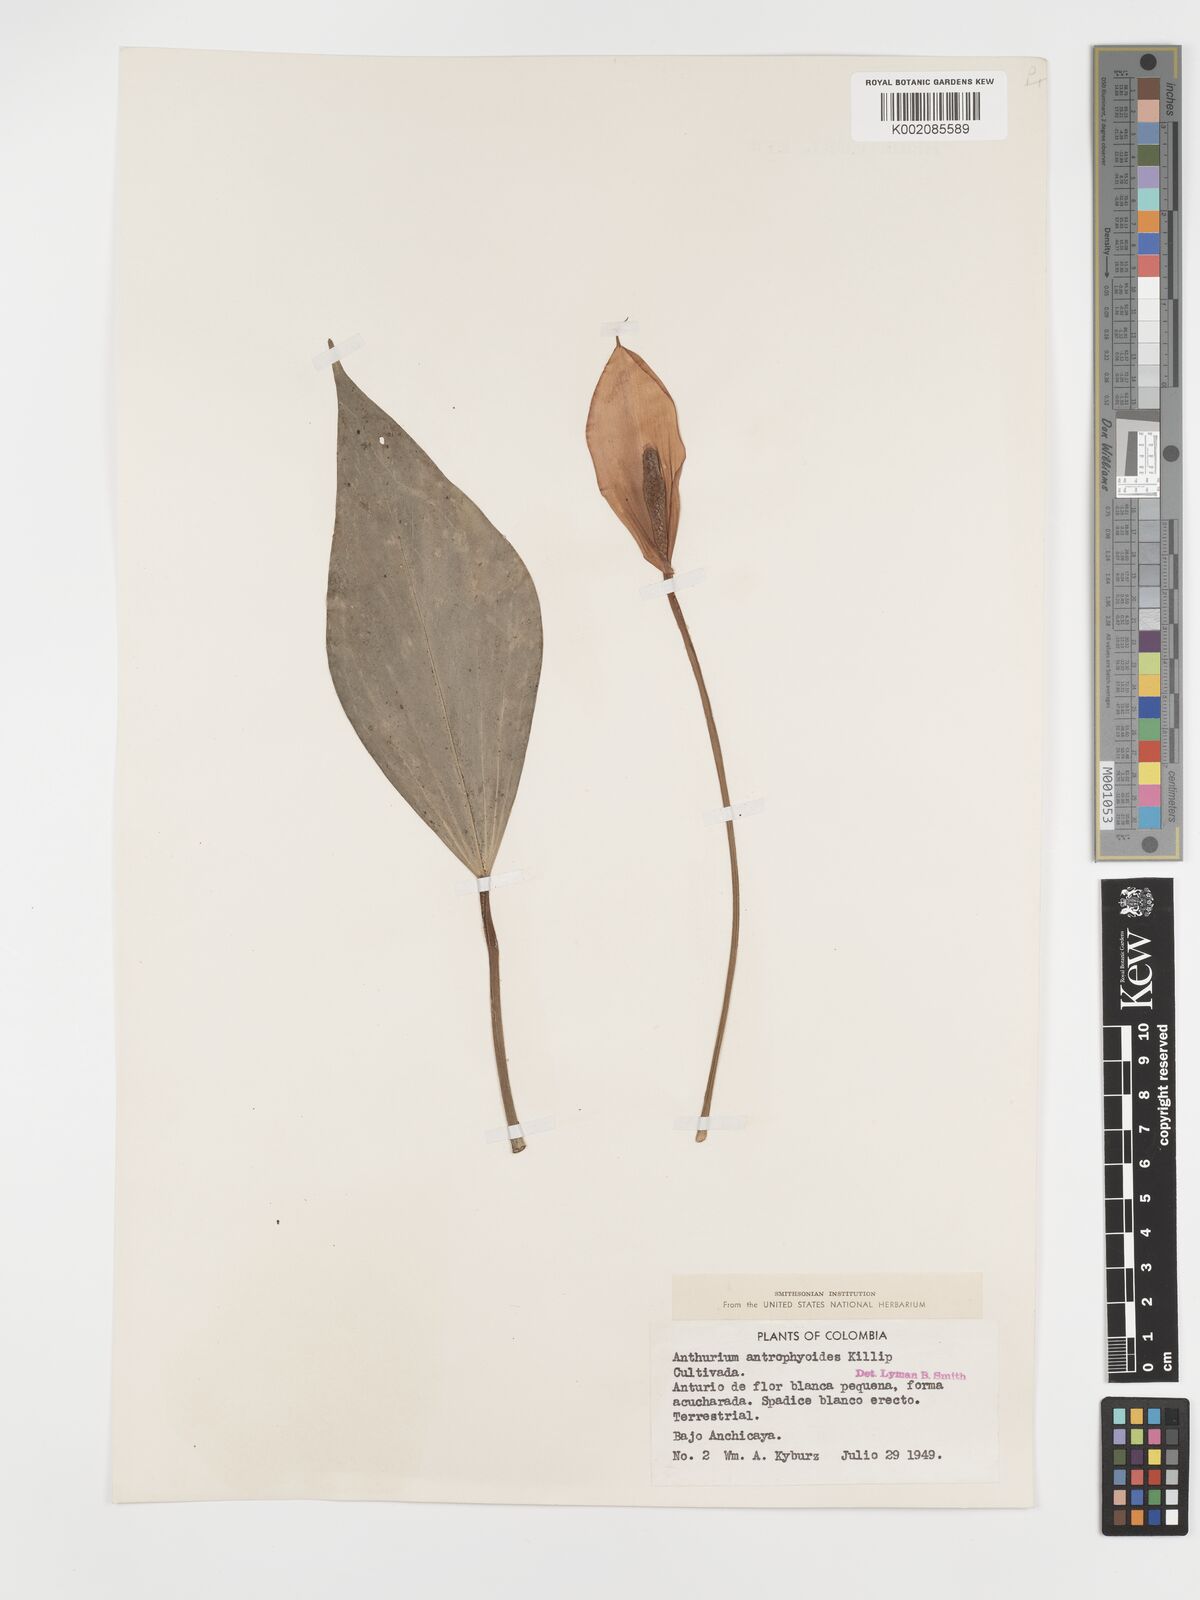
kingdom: Plantae
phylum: Tracheophyta
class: Liliopsida
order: Alismatales
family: Araceae
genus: Anthurium
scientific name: Anthurium antrophyoides
